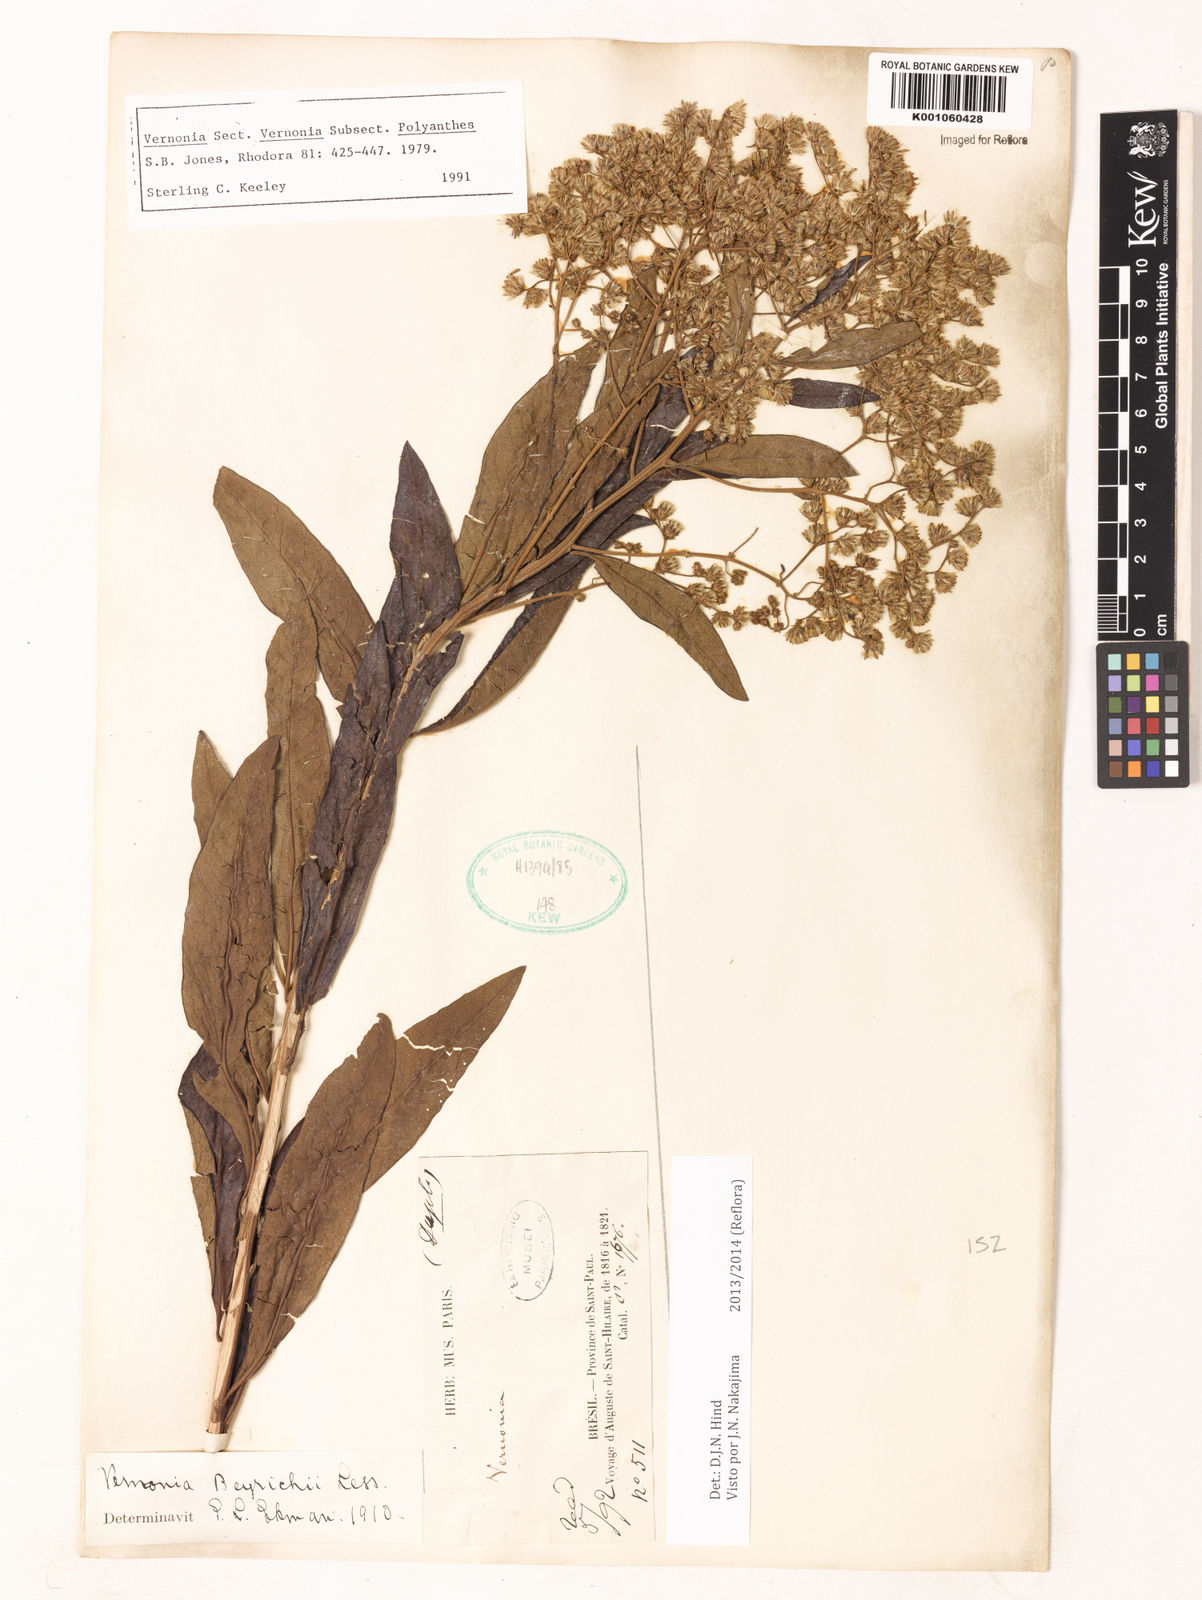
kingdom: Plantae
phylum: Tracheophyta
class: Magnoliopsida
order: Asterales
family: Asteraceae
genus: Vernonanthura
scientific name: Vernonanthura beyrichii
